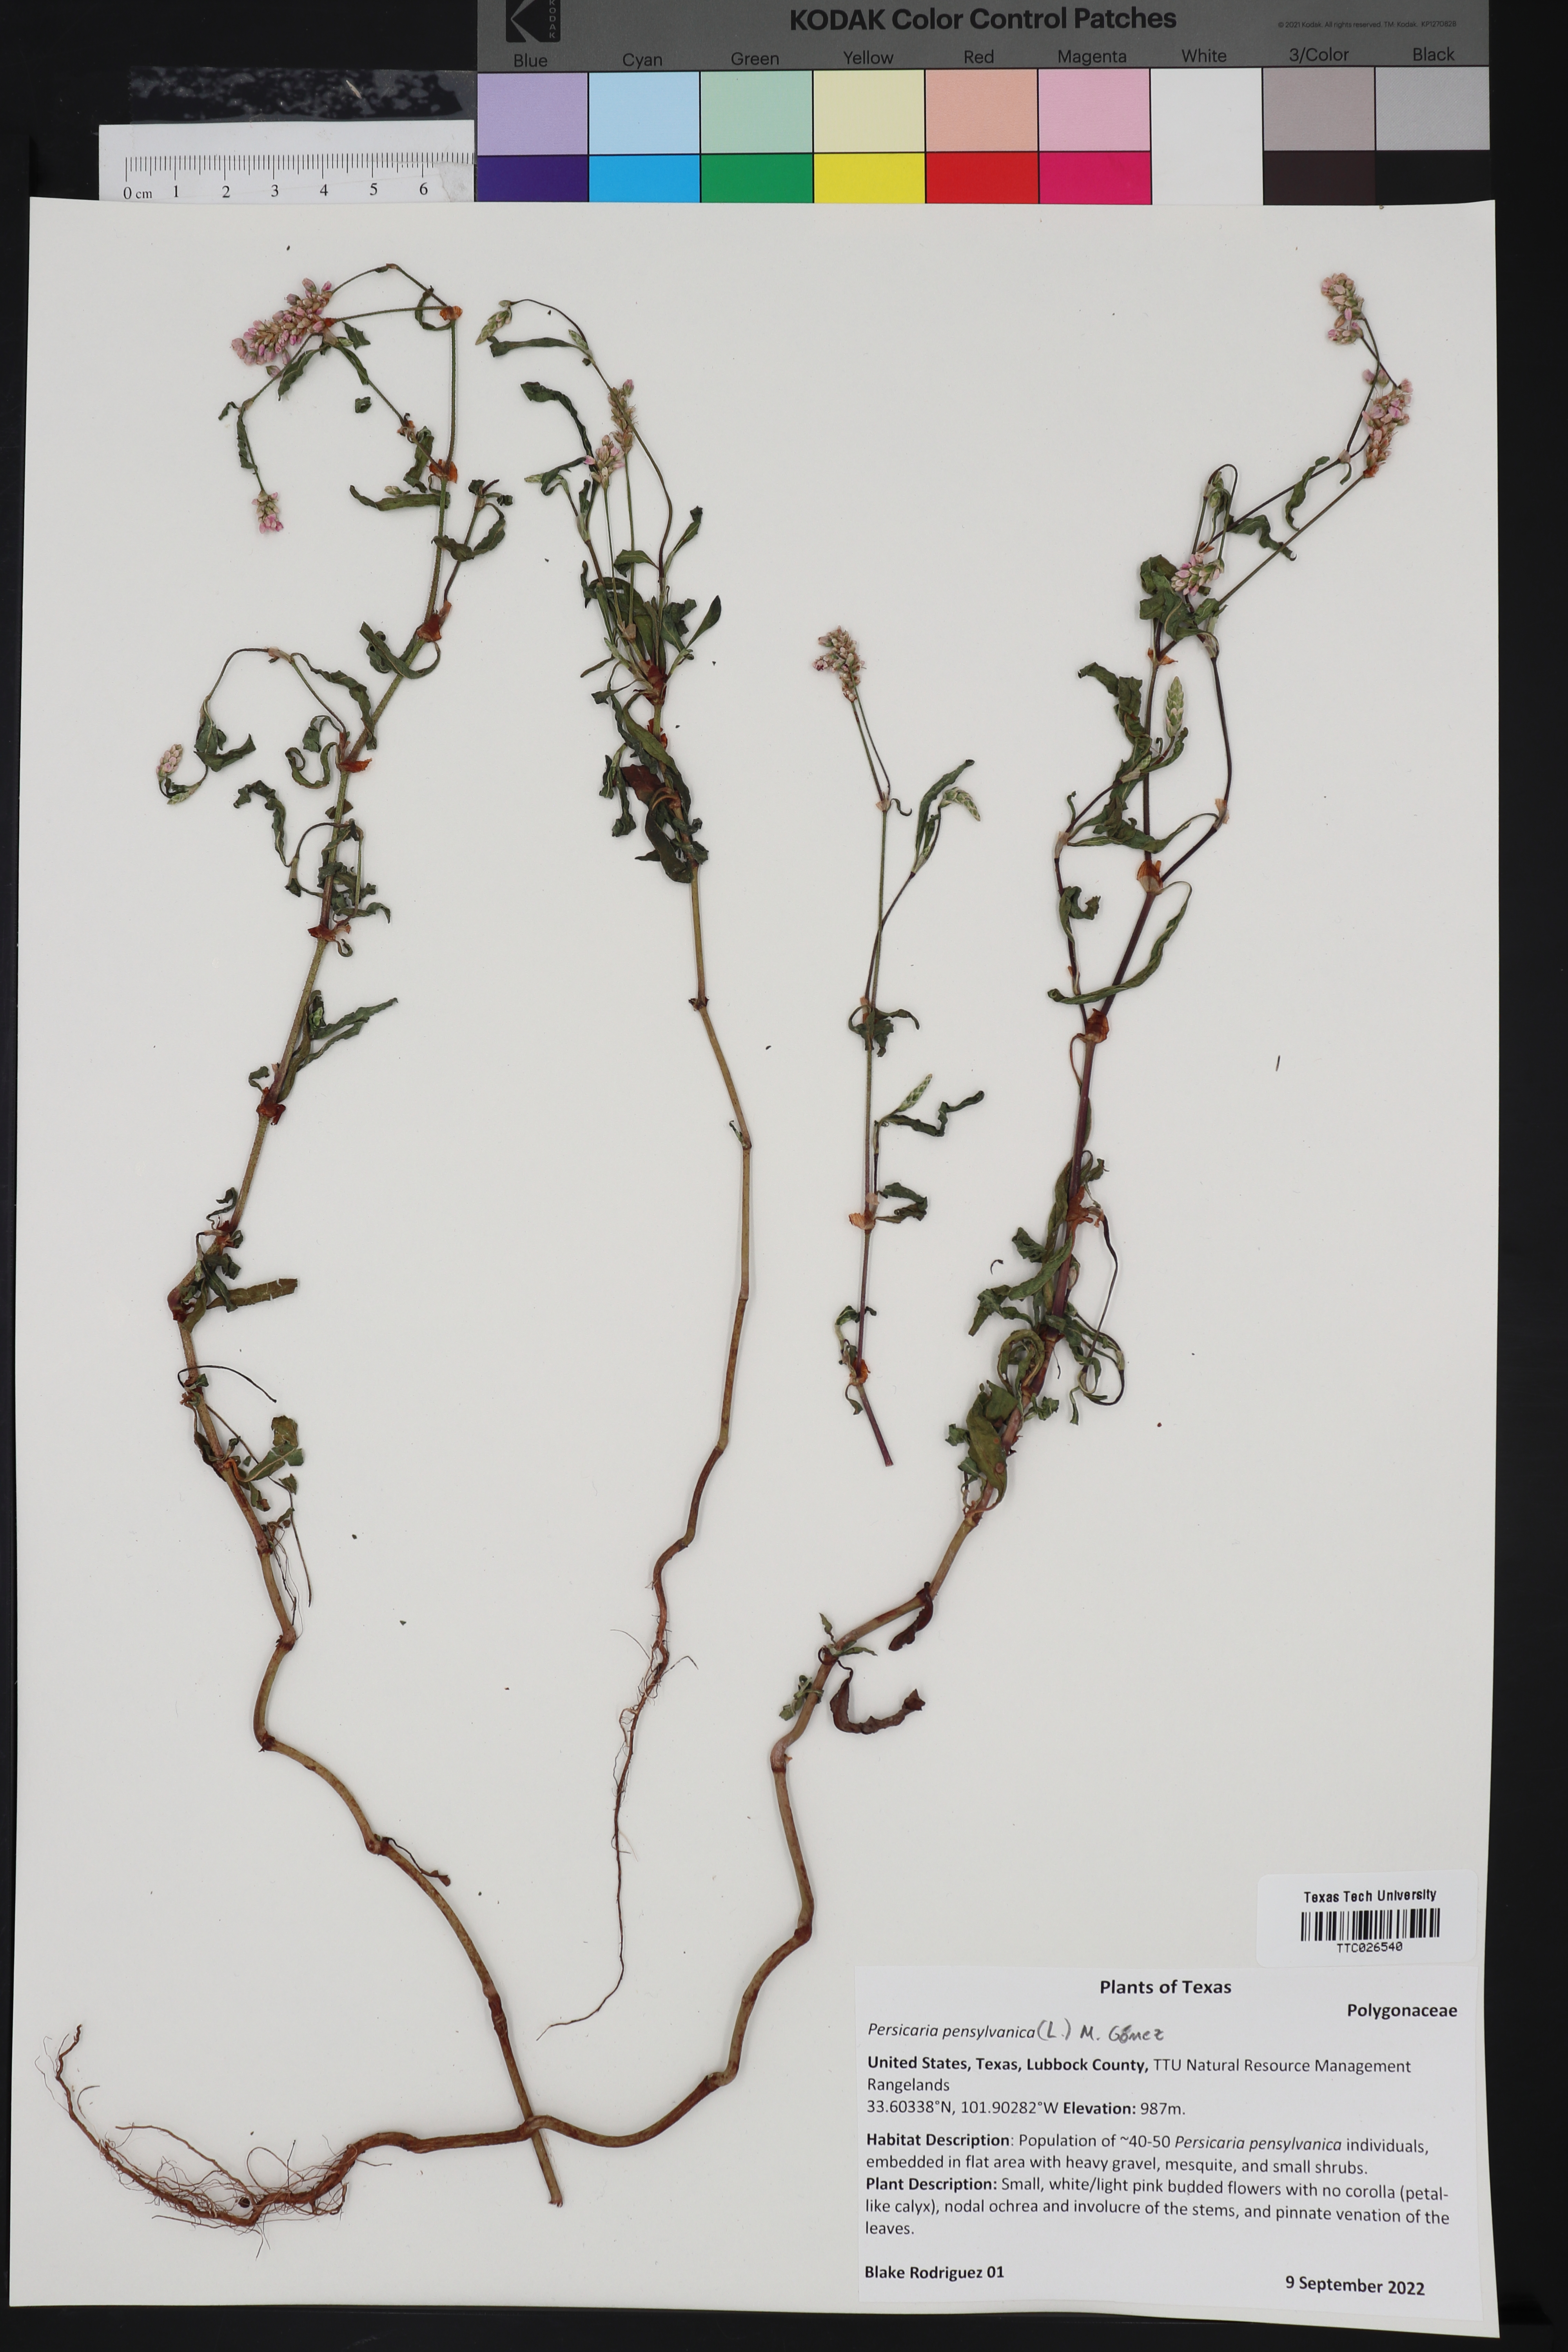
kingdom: Plantae
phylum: Tracheophyta
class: Magnoliopsida
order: Caryophyllales
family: Polygonaceae
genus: Persicaria
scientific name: Persicaria pensylvanica
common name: Pinkweed
